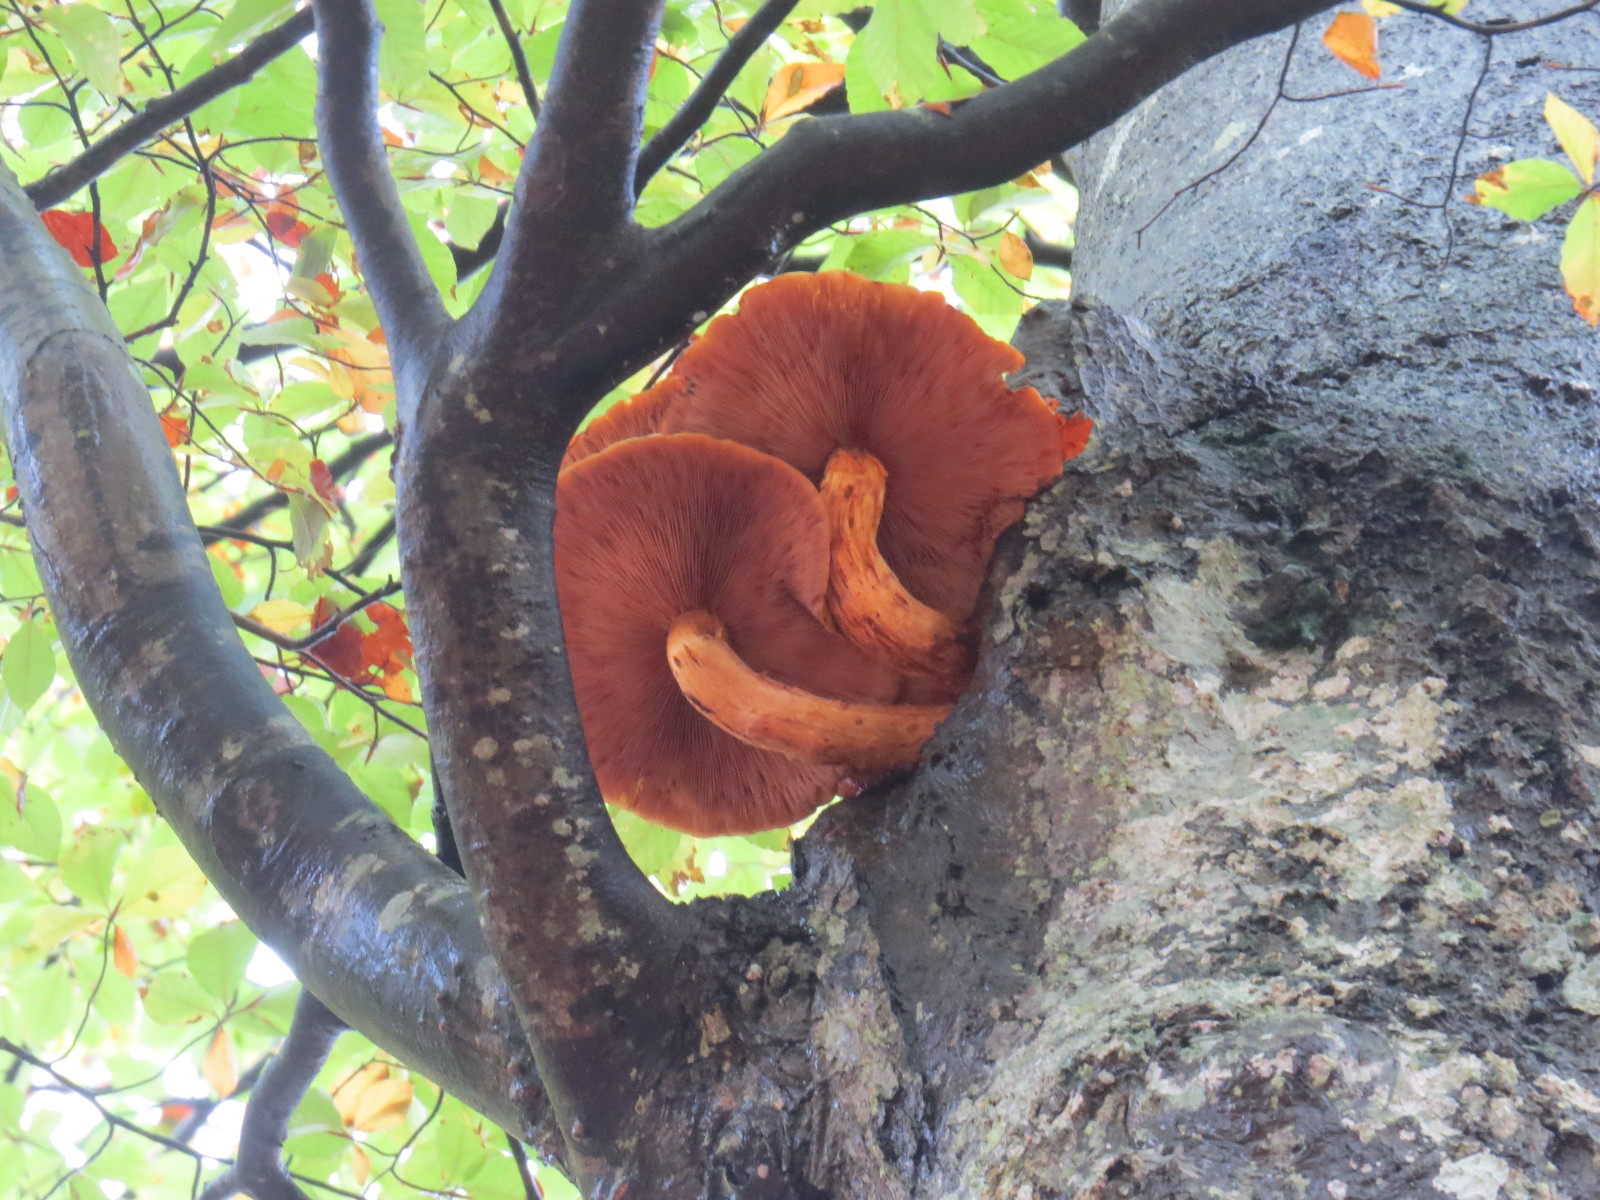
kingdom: Fungi
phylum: Basidiomycota
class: Agaricomycetes
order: Agaricales
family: Strophariaceae
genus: Pholiota
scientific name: Pholiota adiposa
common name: højtsiddende skælhat
